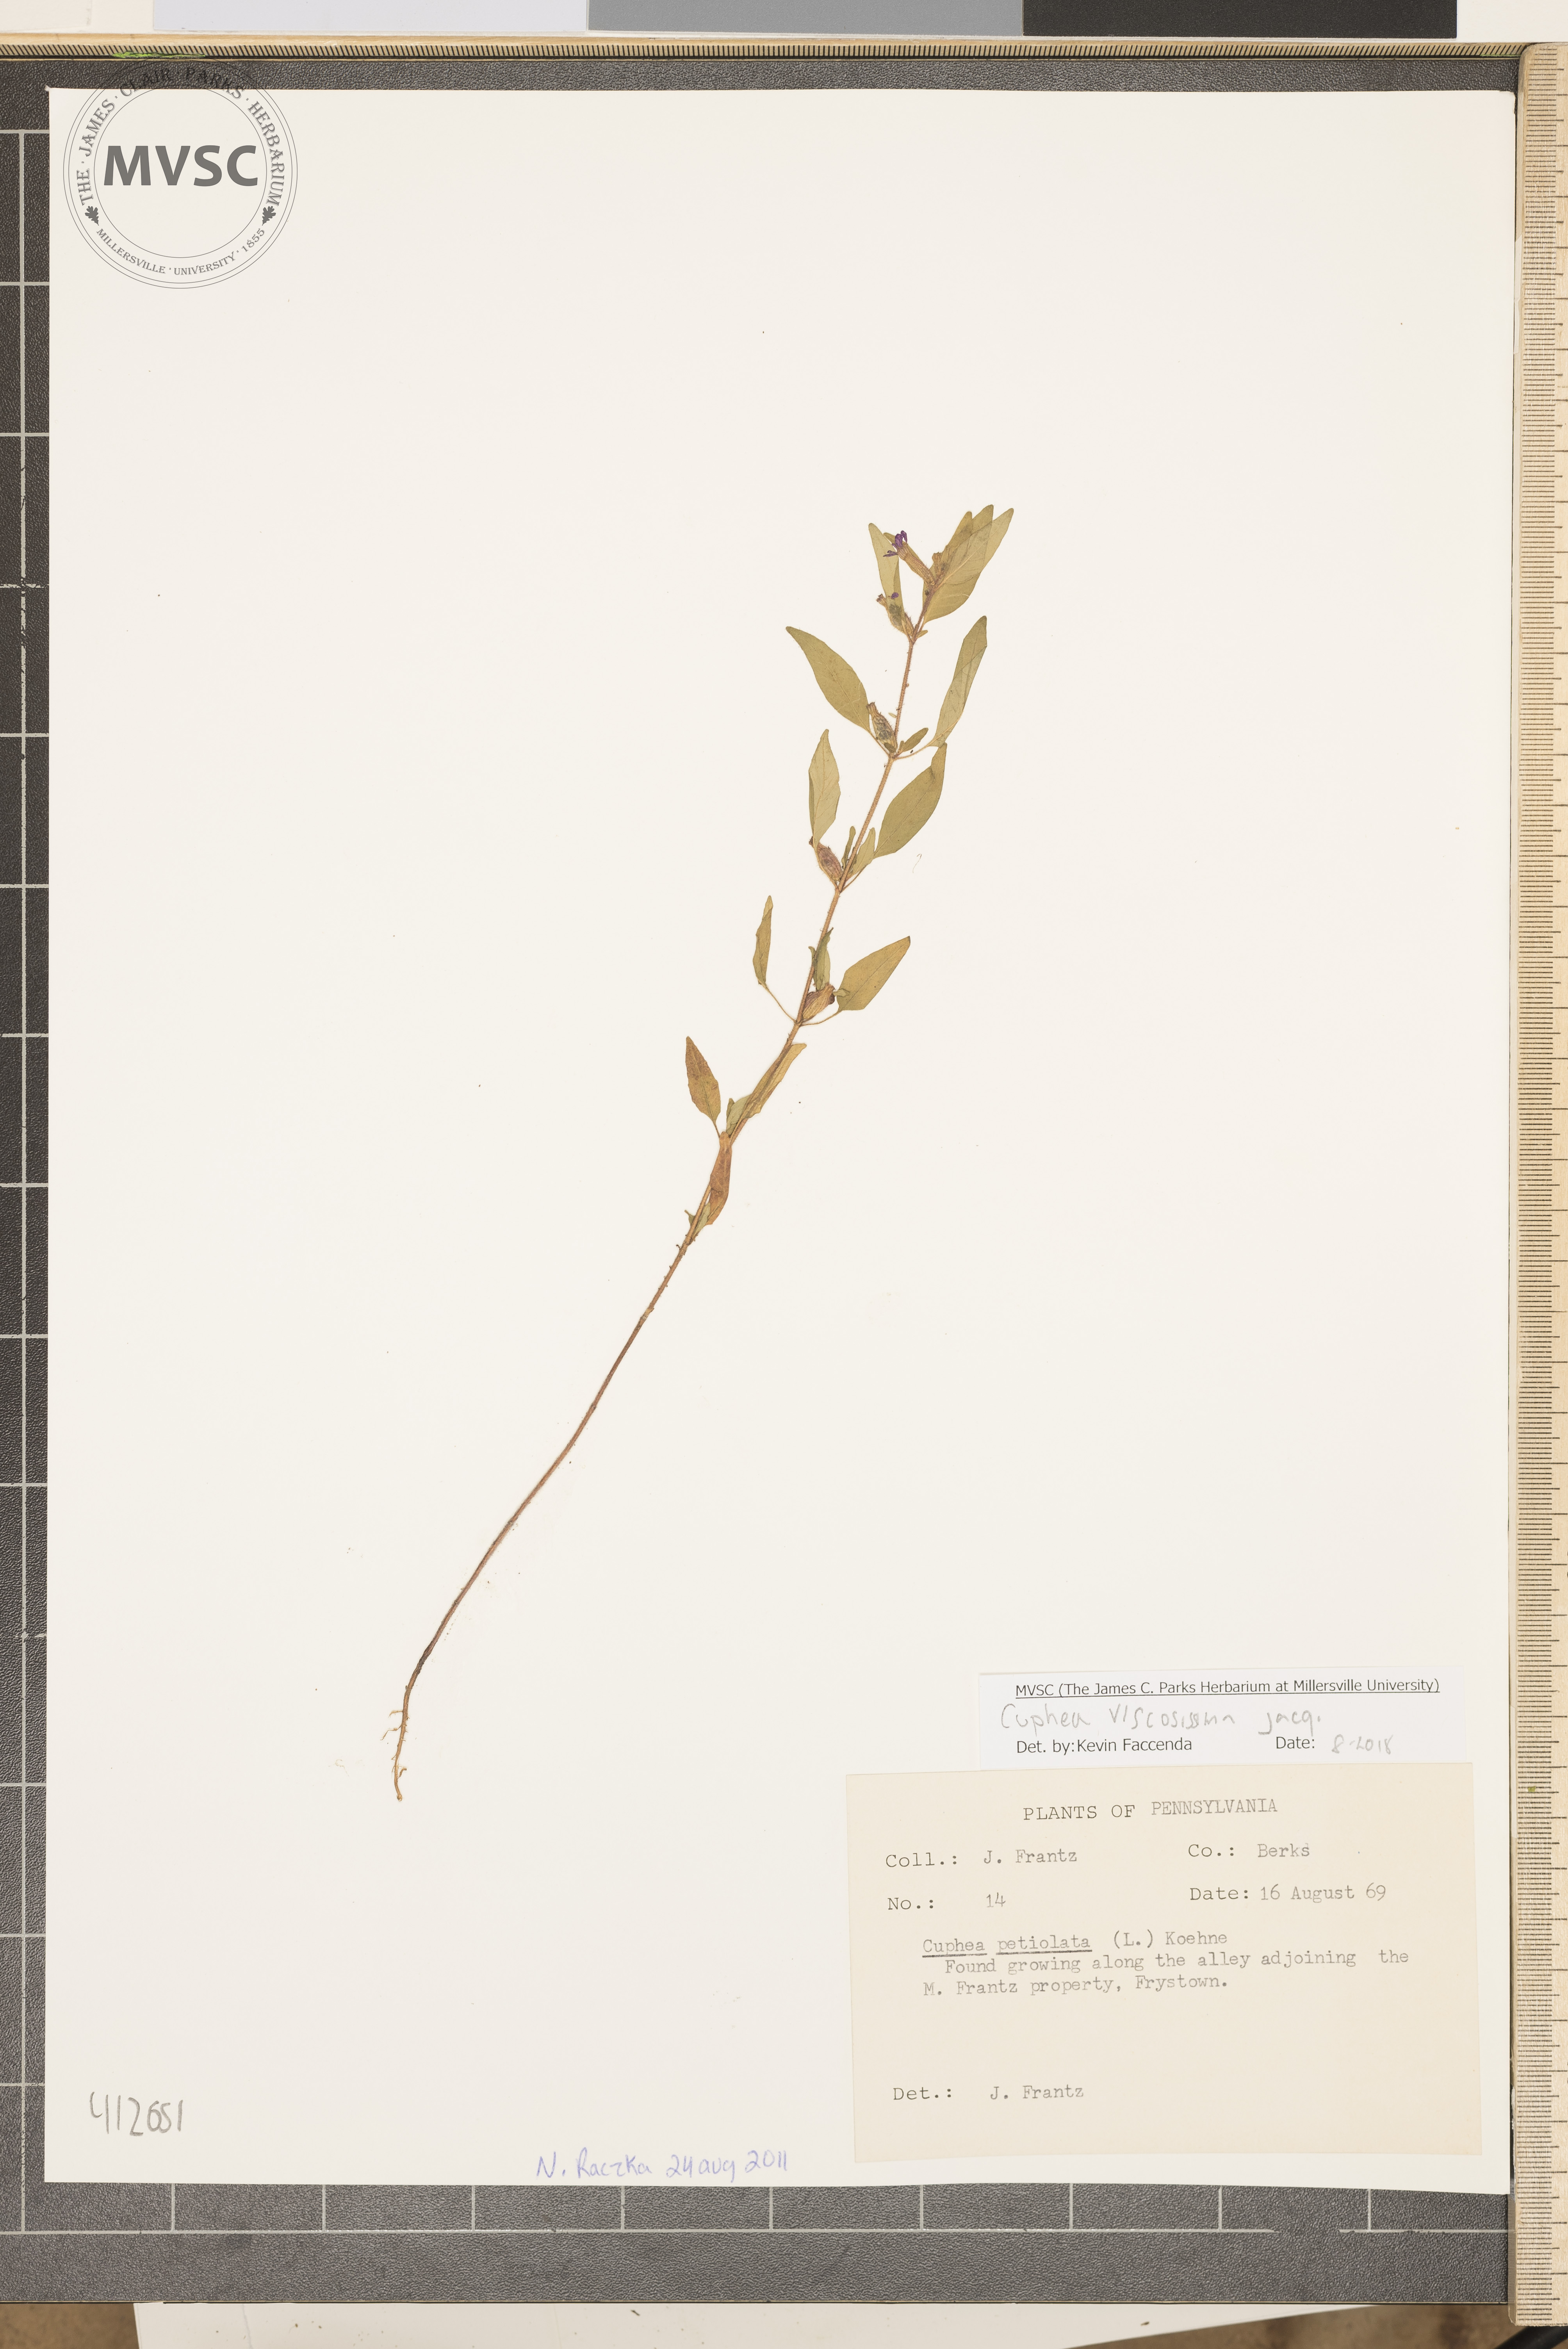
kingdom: Plantae
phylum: Tracheophyta
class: Magnoliopsida
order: Myrtales
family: Lythraceae
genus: Cuphea
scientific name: Cuphea viscosissima
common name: Clammy cuphea
